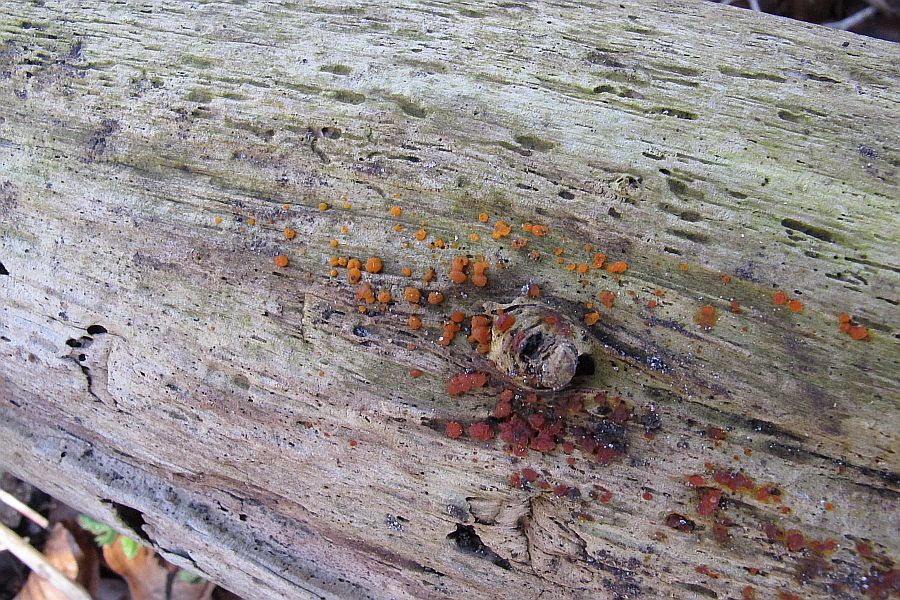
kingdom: Fungi
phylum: Basidiomycota
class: Dacrymycetes
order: Dacrymycetales
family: Dacrymycetaceae
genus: Dacrymyces
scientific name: Dacrymyces stillatus
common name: almindelig tåresvamp
